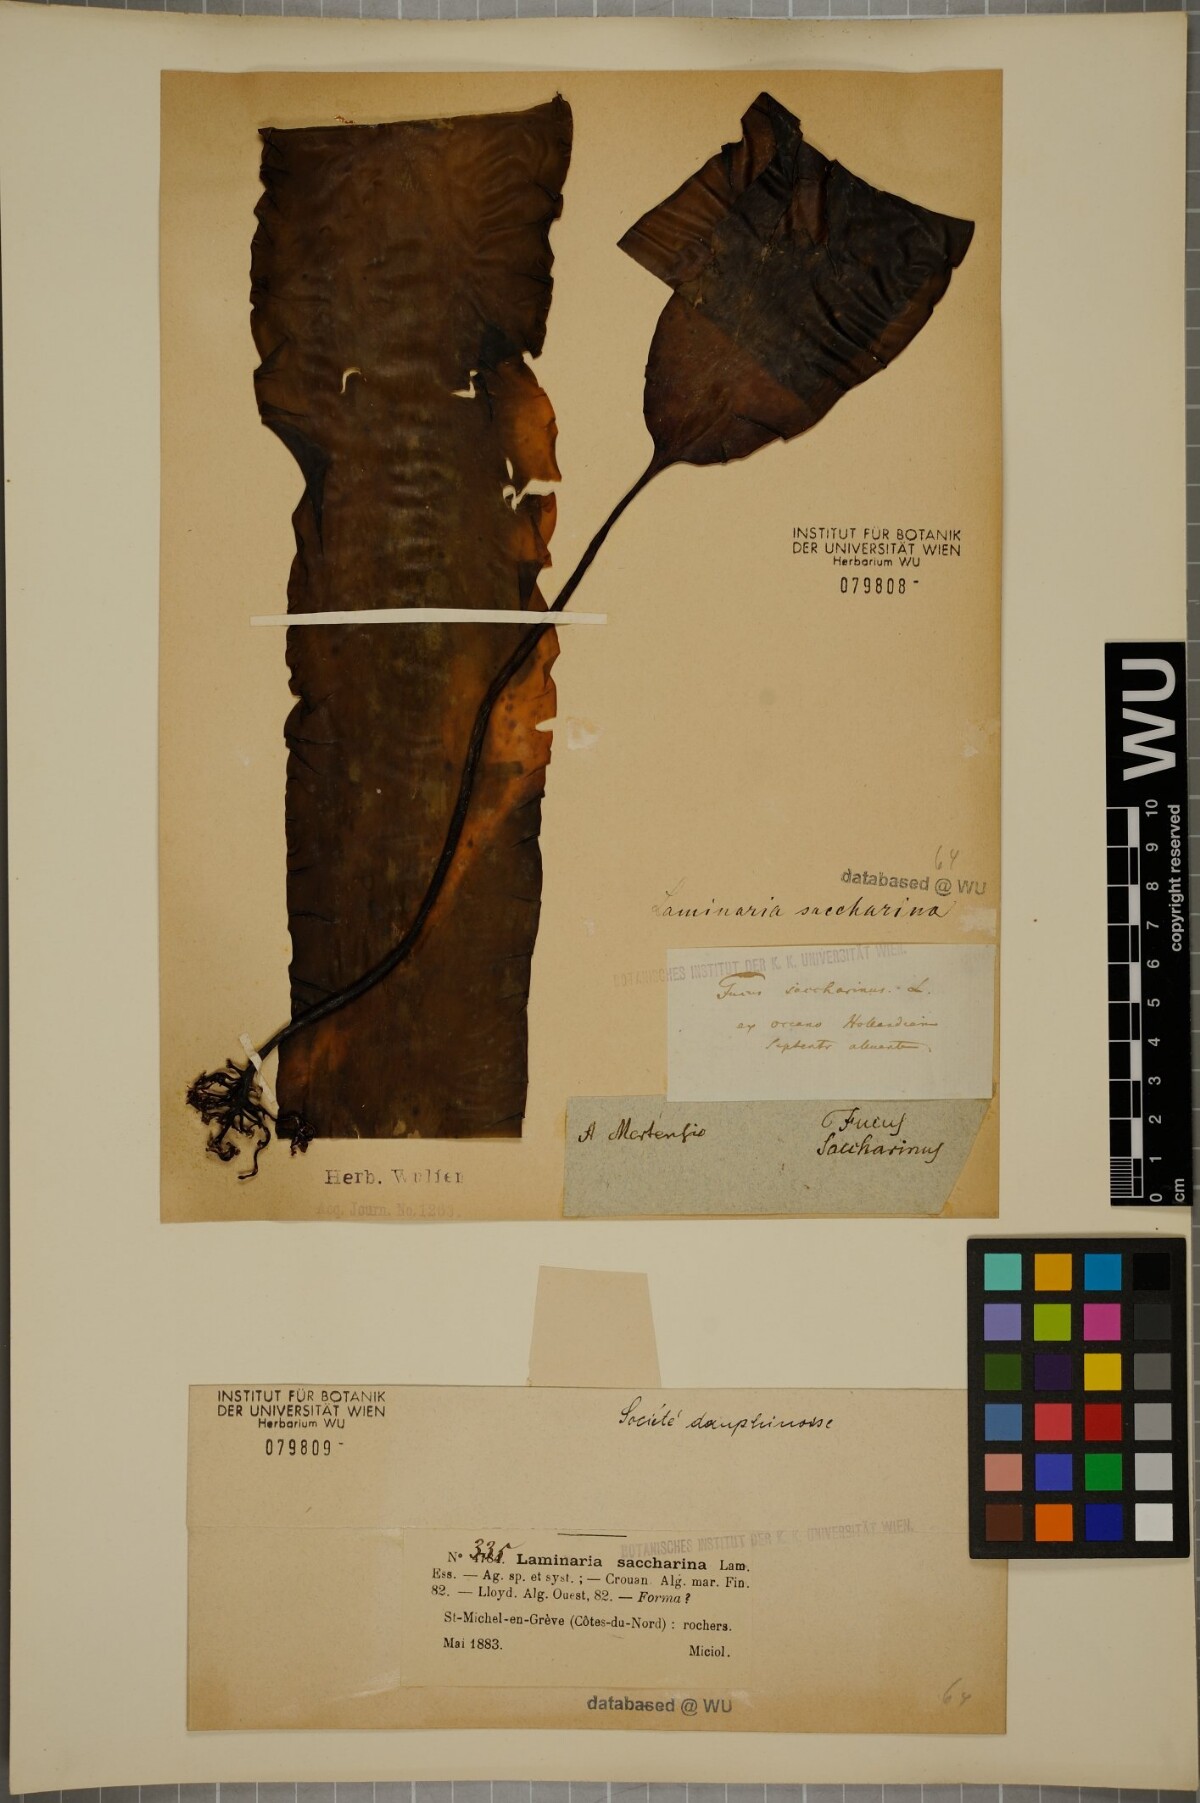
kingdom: Chromista
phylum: Ochrophyta
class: Phaeophyceae
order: Laminariales
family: Laminariaceae
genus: Saccharina
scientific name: Saccharina latissima
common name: Poor man's weather glass
